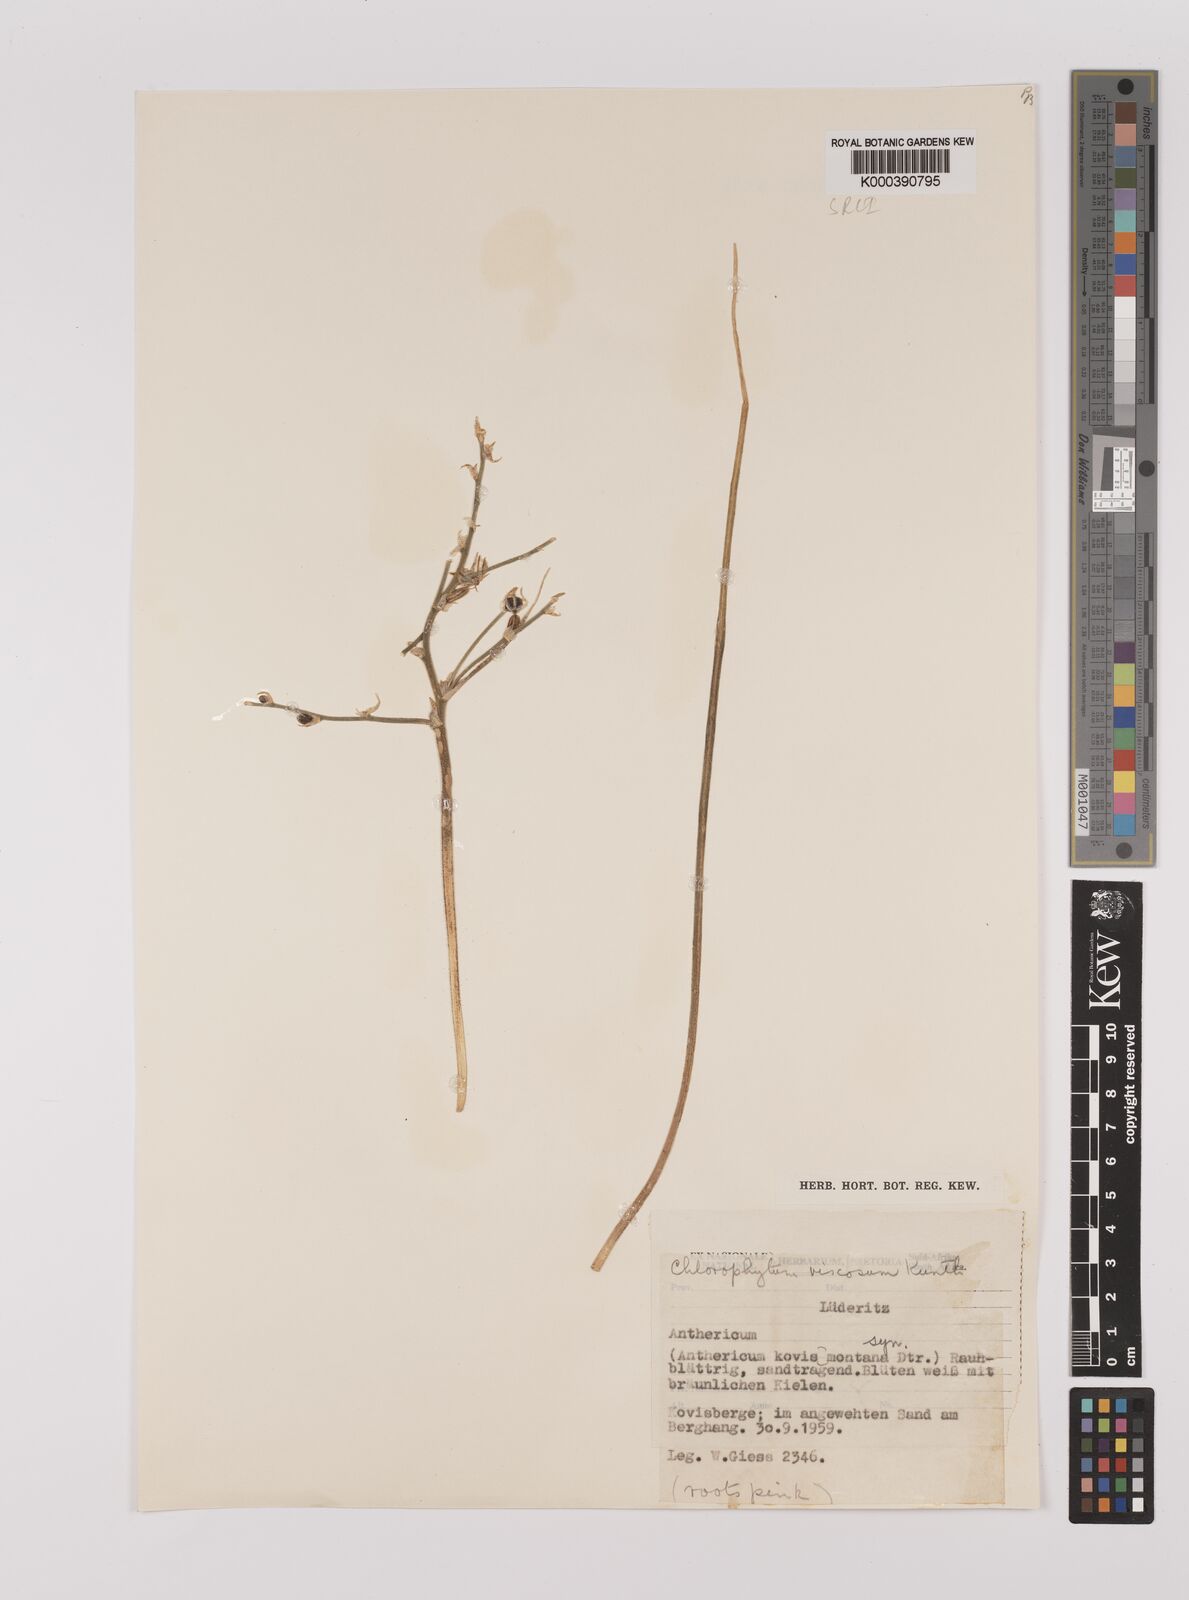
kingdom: Plantae
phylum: Tracheophyta
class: Liliopsida
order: Asparagales
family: Asparagaceae
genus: Chlorophytum
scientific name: Chlorophytum viscosum
